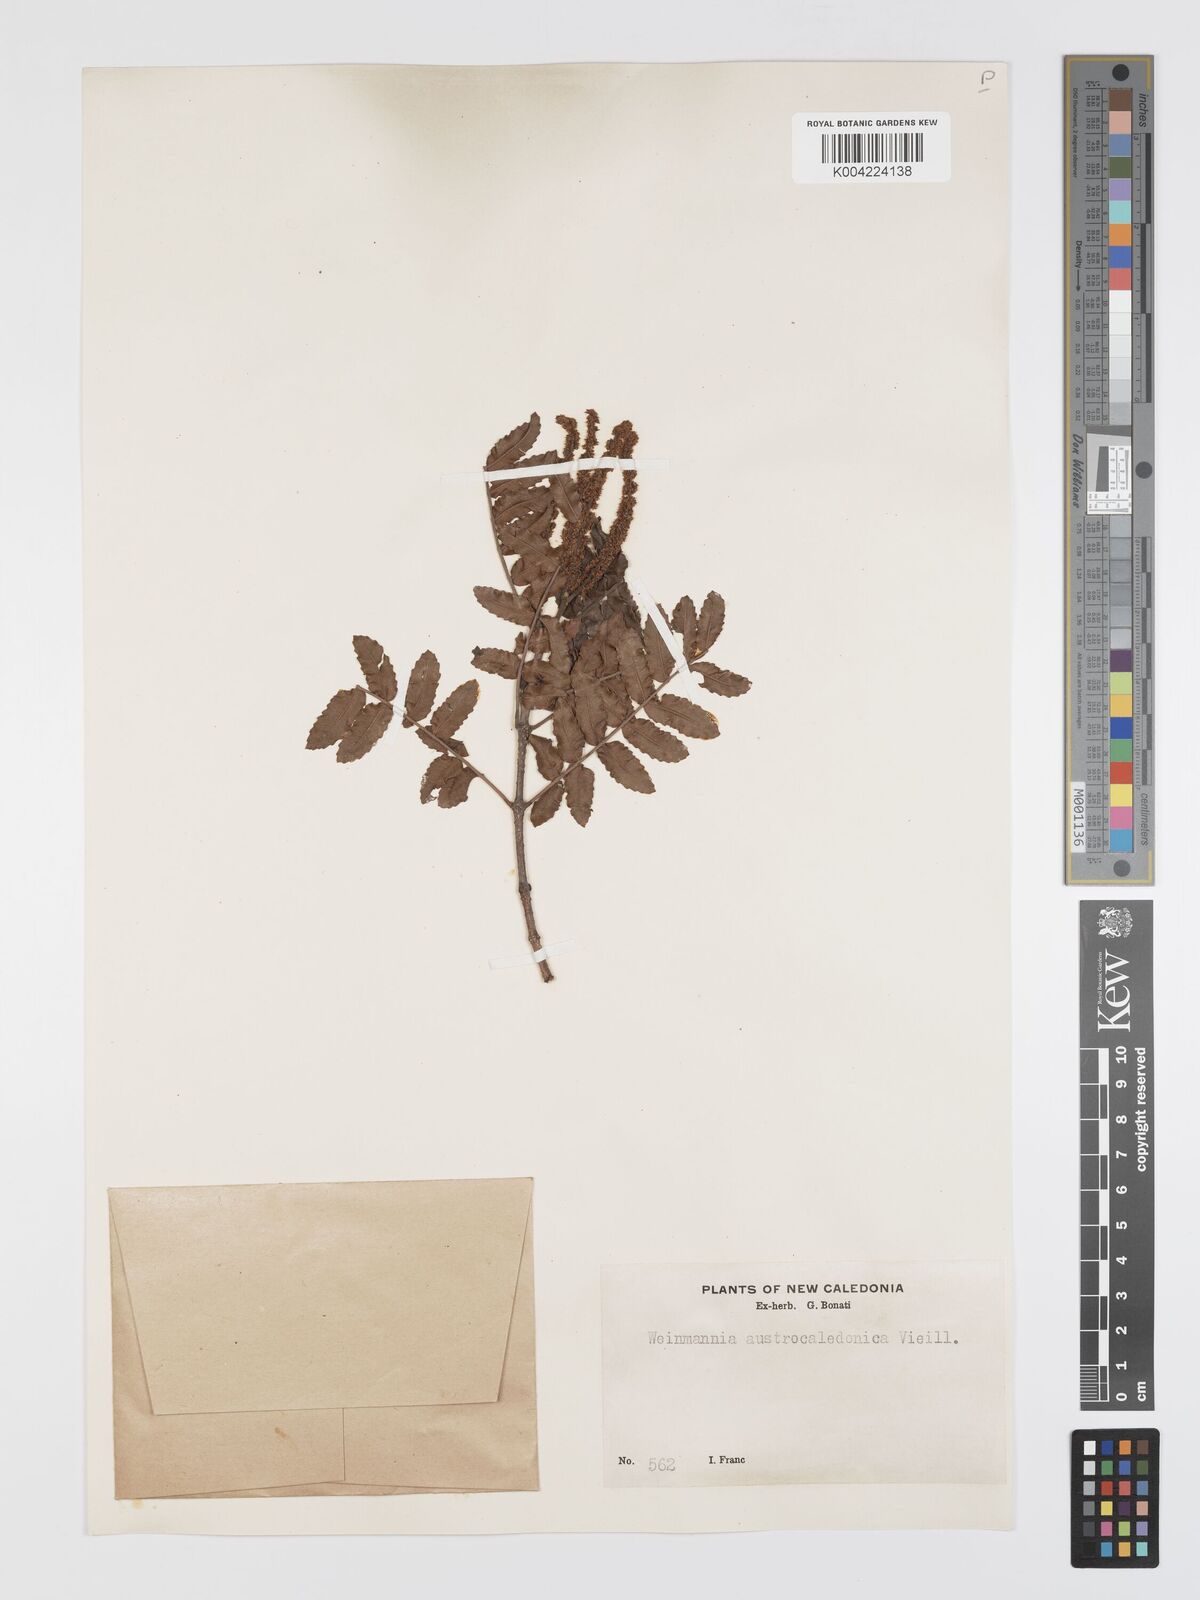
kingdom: Plantae
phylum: Tracheophyta
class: Magnoliopsida
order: Oxalidales
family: Cunoniaceae
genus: Cunonia
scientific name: Cunonia austrocaledonica
